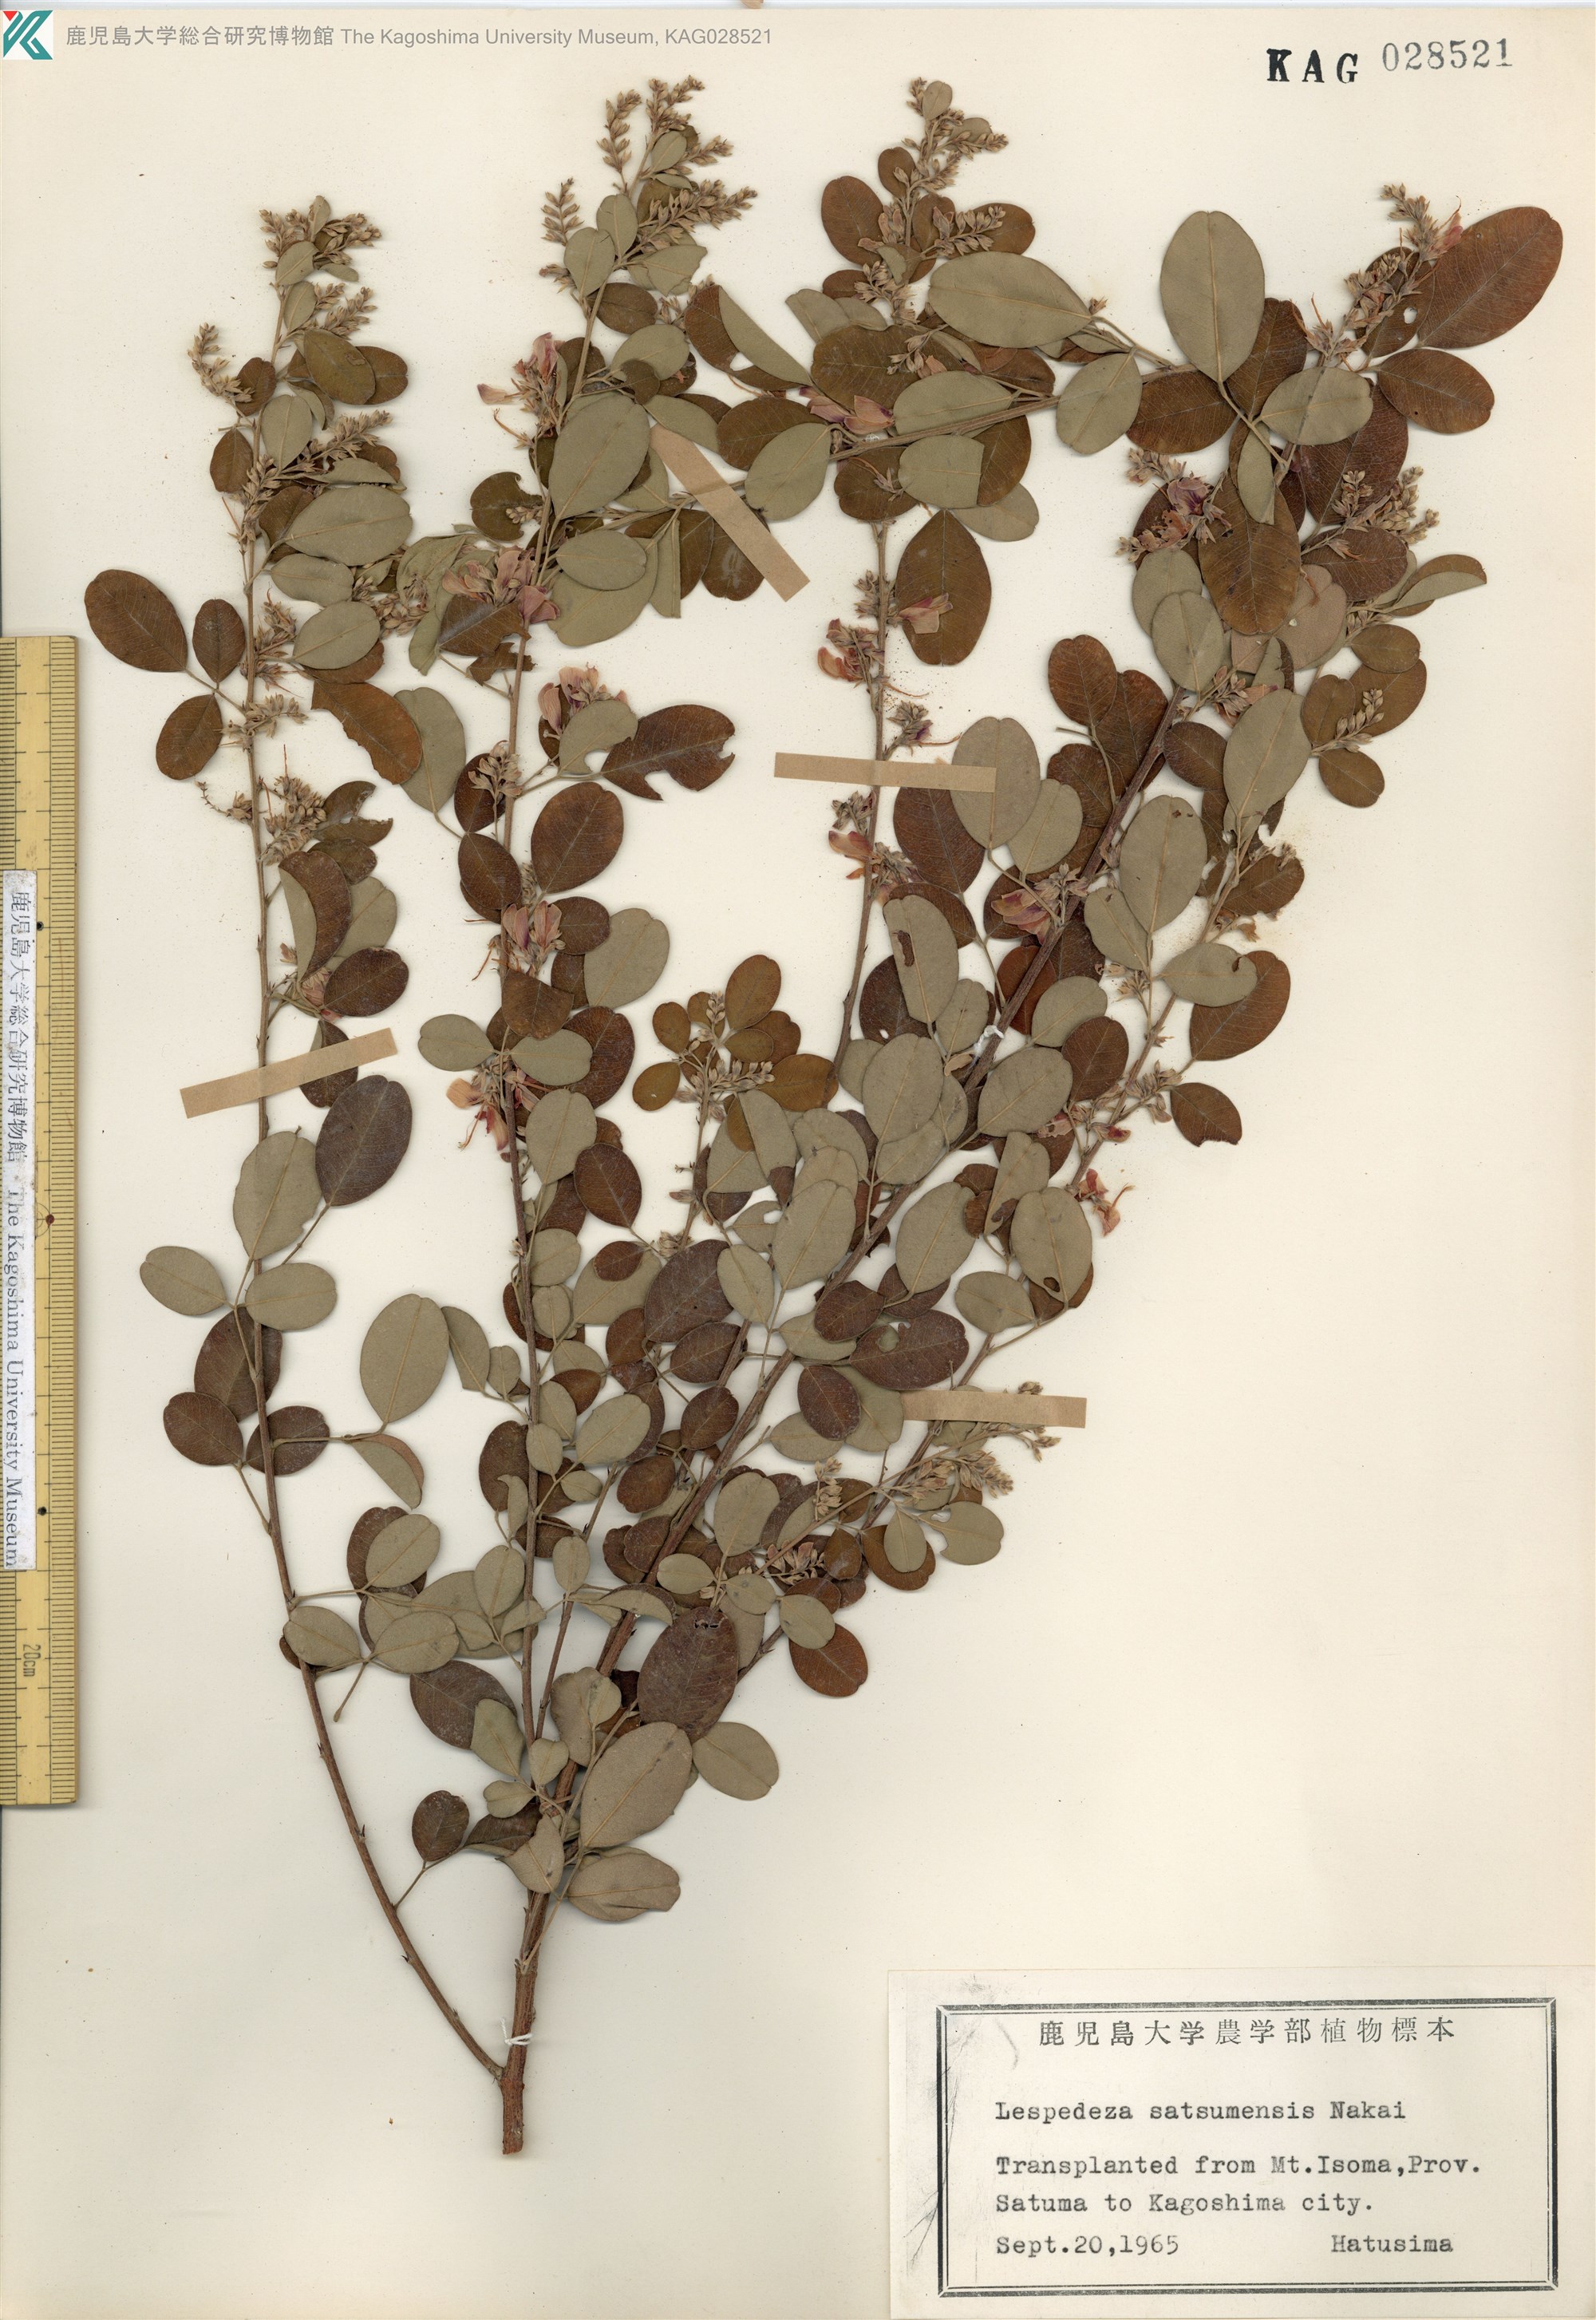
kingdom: Plantae
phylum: Tracheophyta
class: Magnoliopsida
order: Fabales
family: Fabaceae
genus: Lespedeza
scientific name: Lespedeza thunbergii
